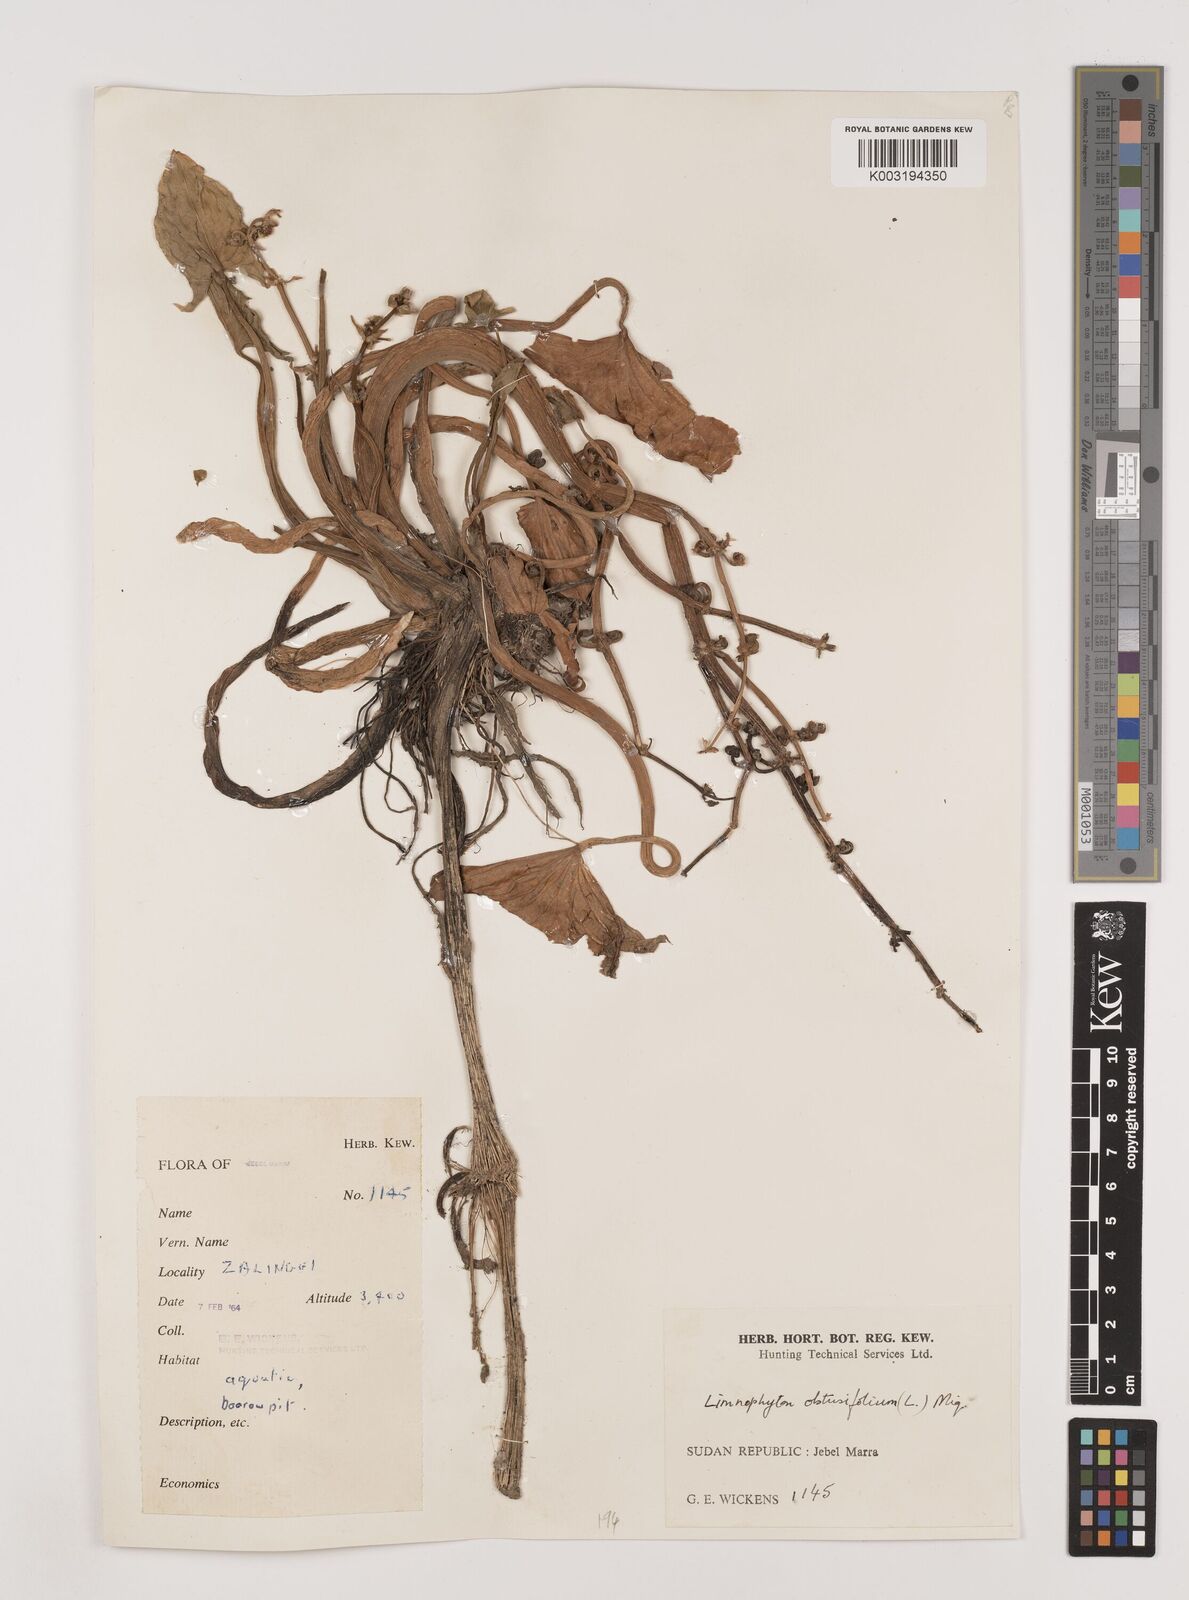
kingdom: Plantae
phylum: Tracheophyta
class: Liliopsida
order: Alismatales
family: Alismataceae
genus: Limnophyton
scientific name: Limnophyton obtusifolium
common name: Arrow head
